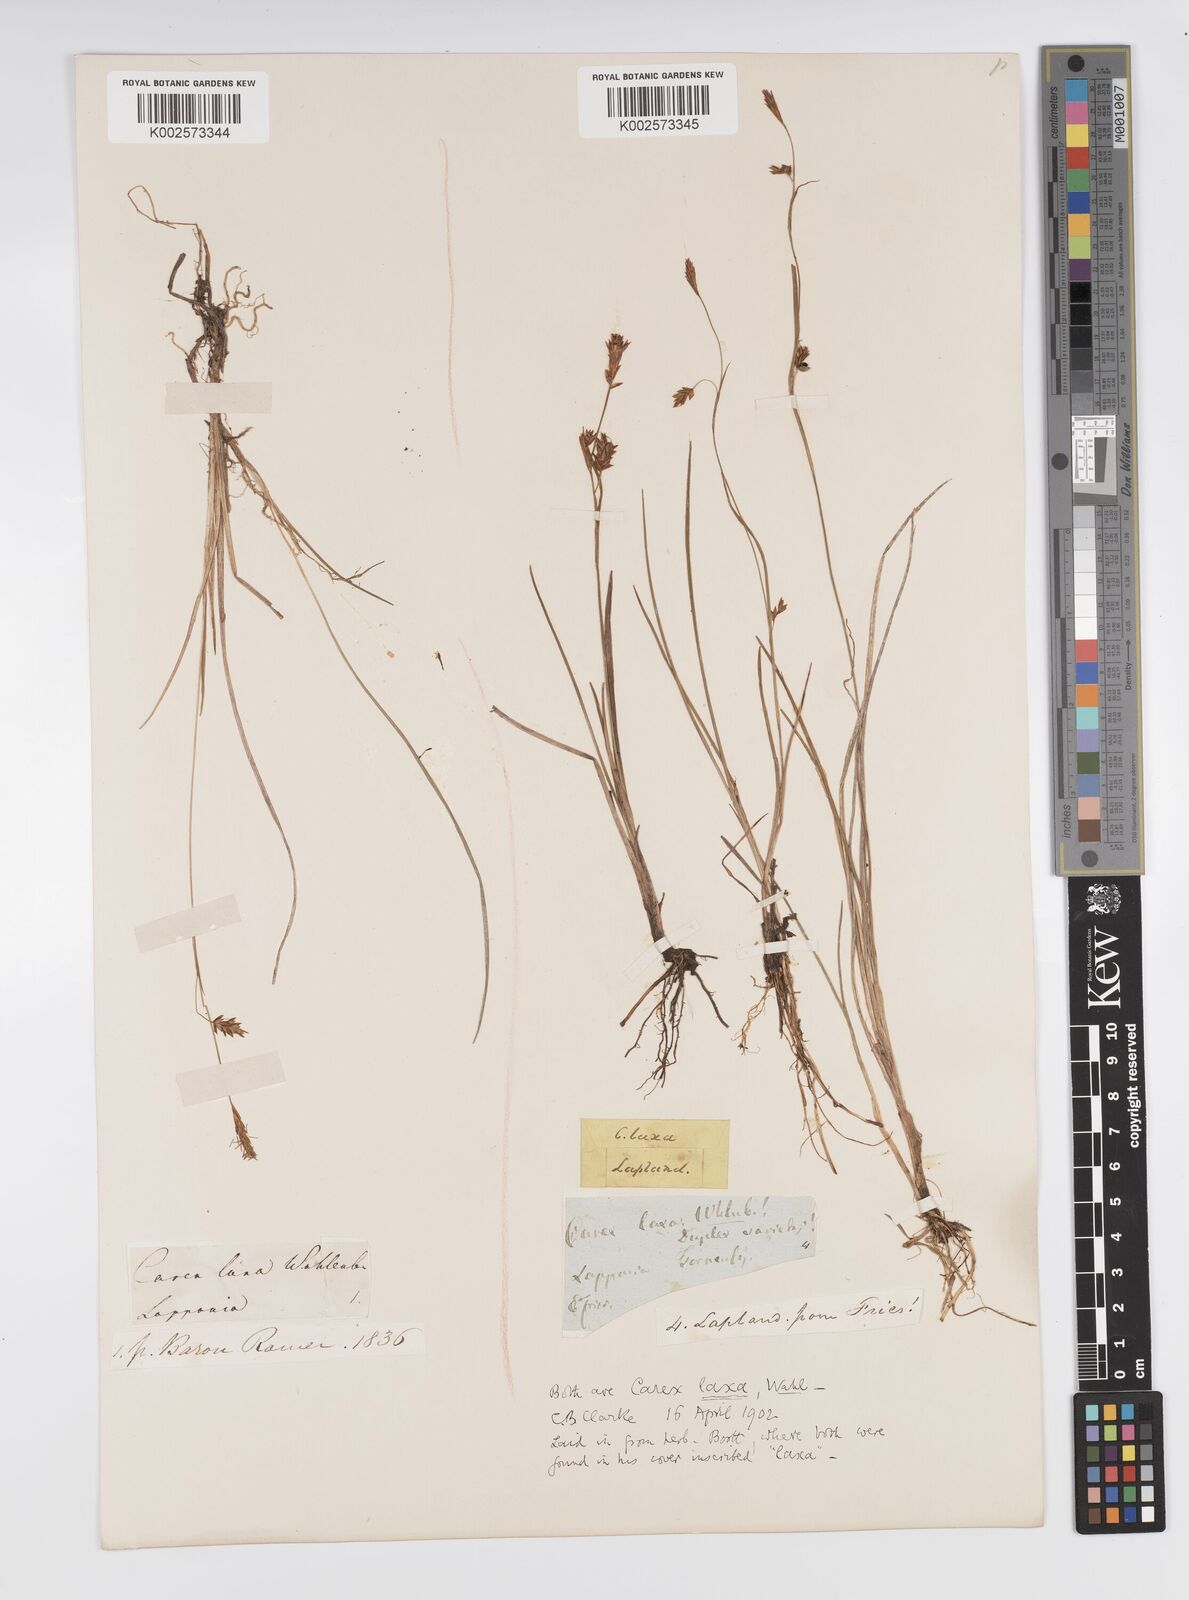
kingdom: Plantae
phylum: Tracheophyta
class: Liliopsida
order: Poales
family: Cyperaceae
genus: Carex
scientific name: Carex laxa
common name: Weak sedge
